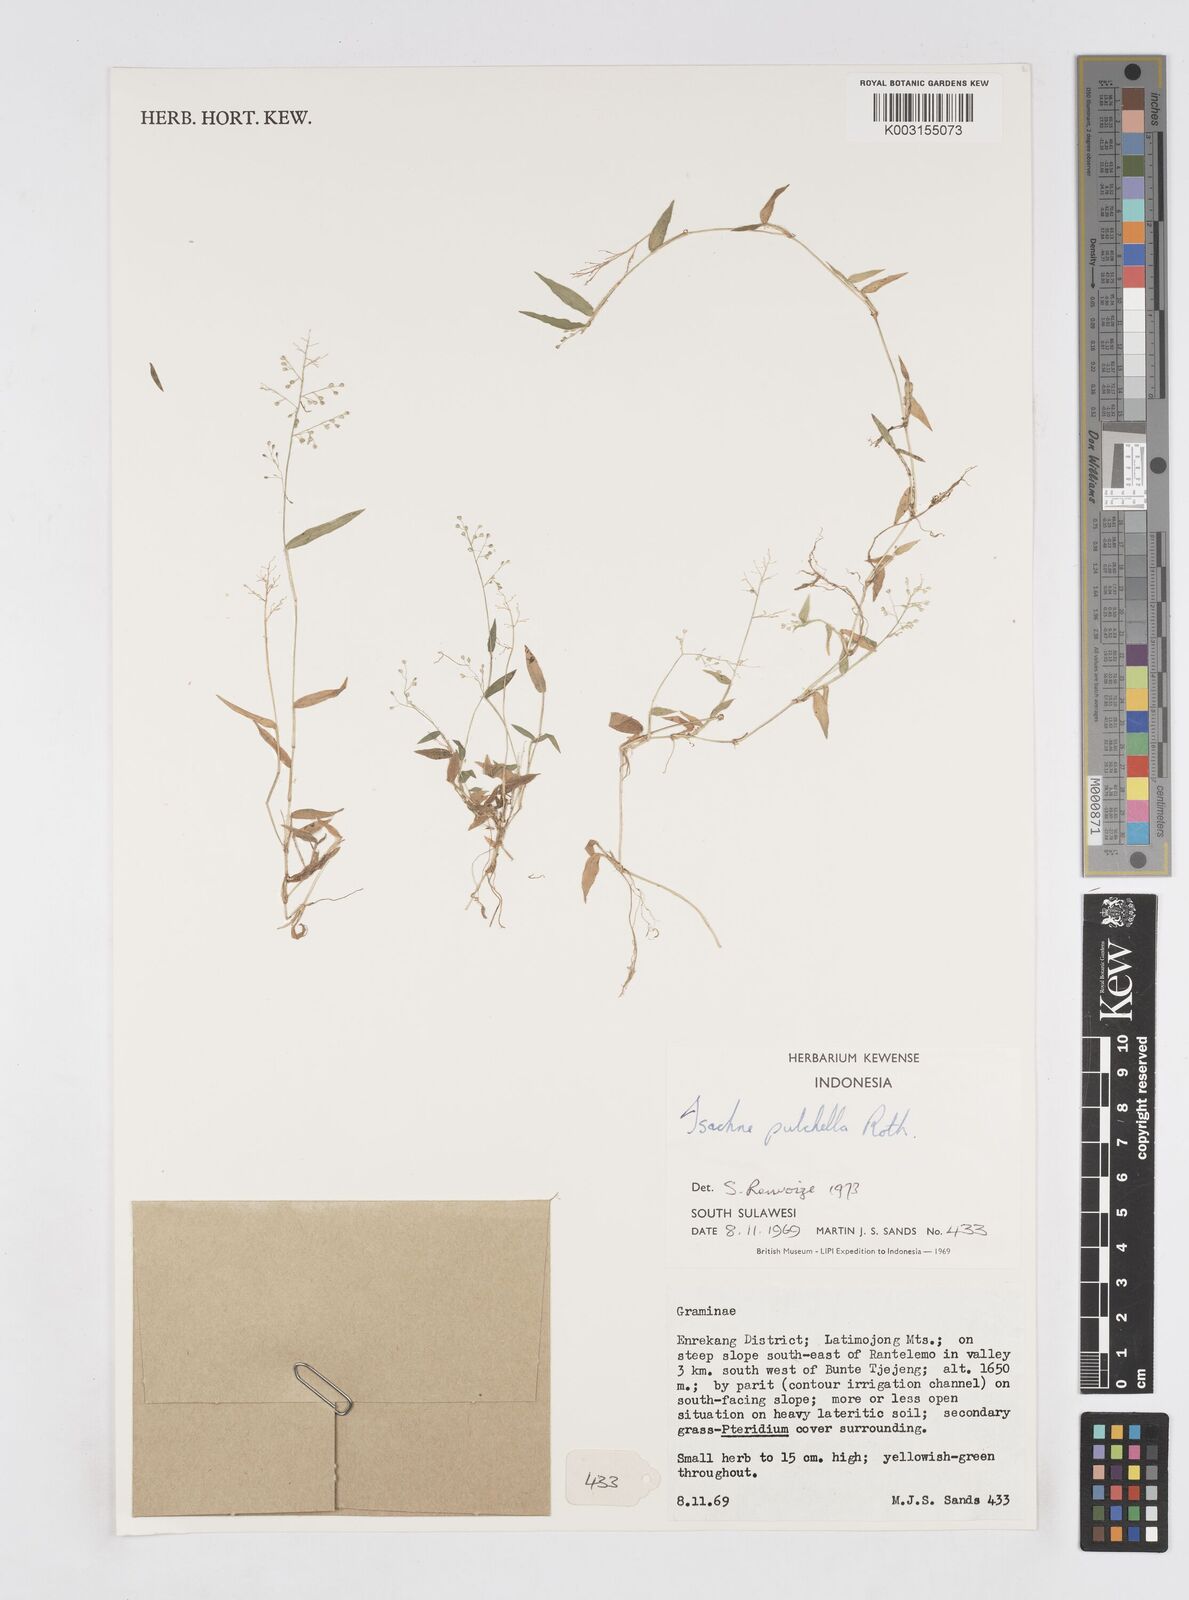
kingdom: Plantae
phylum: Tracheophyta
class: Liliopsida
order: Poales
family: Poaceae
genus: Isachne
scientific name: Isachne pulchella
